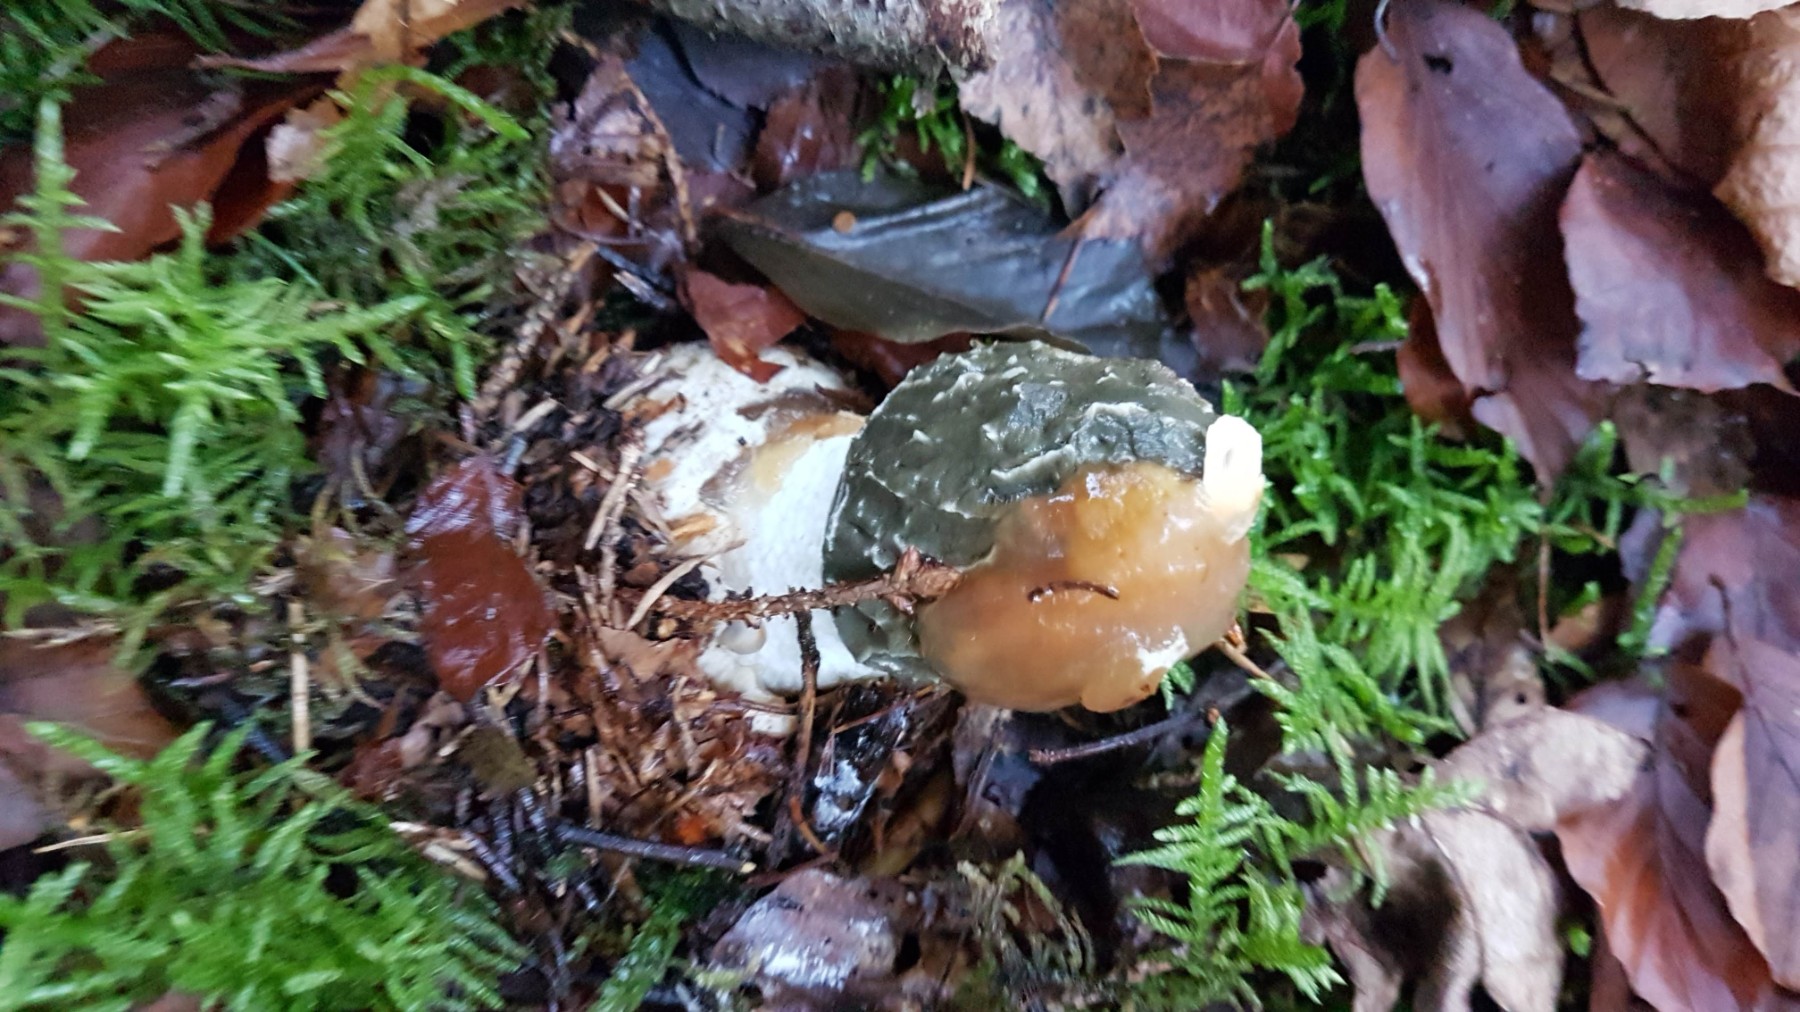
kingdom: Fungi
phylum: Basidiomycota
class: Agaricomycetes
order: Phallales
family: Phallaceae
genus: Phallus
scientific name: Phallus impudicus
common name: almindelig stinksvamp
